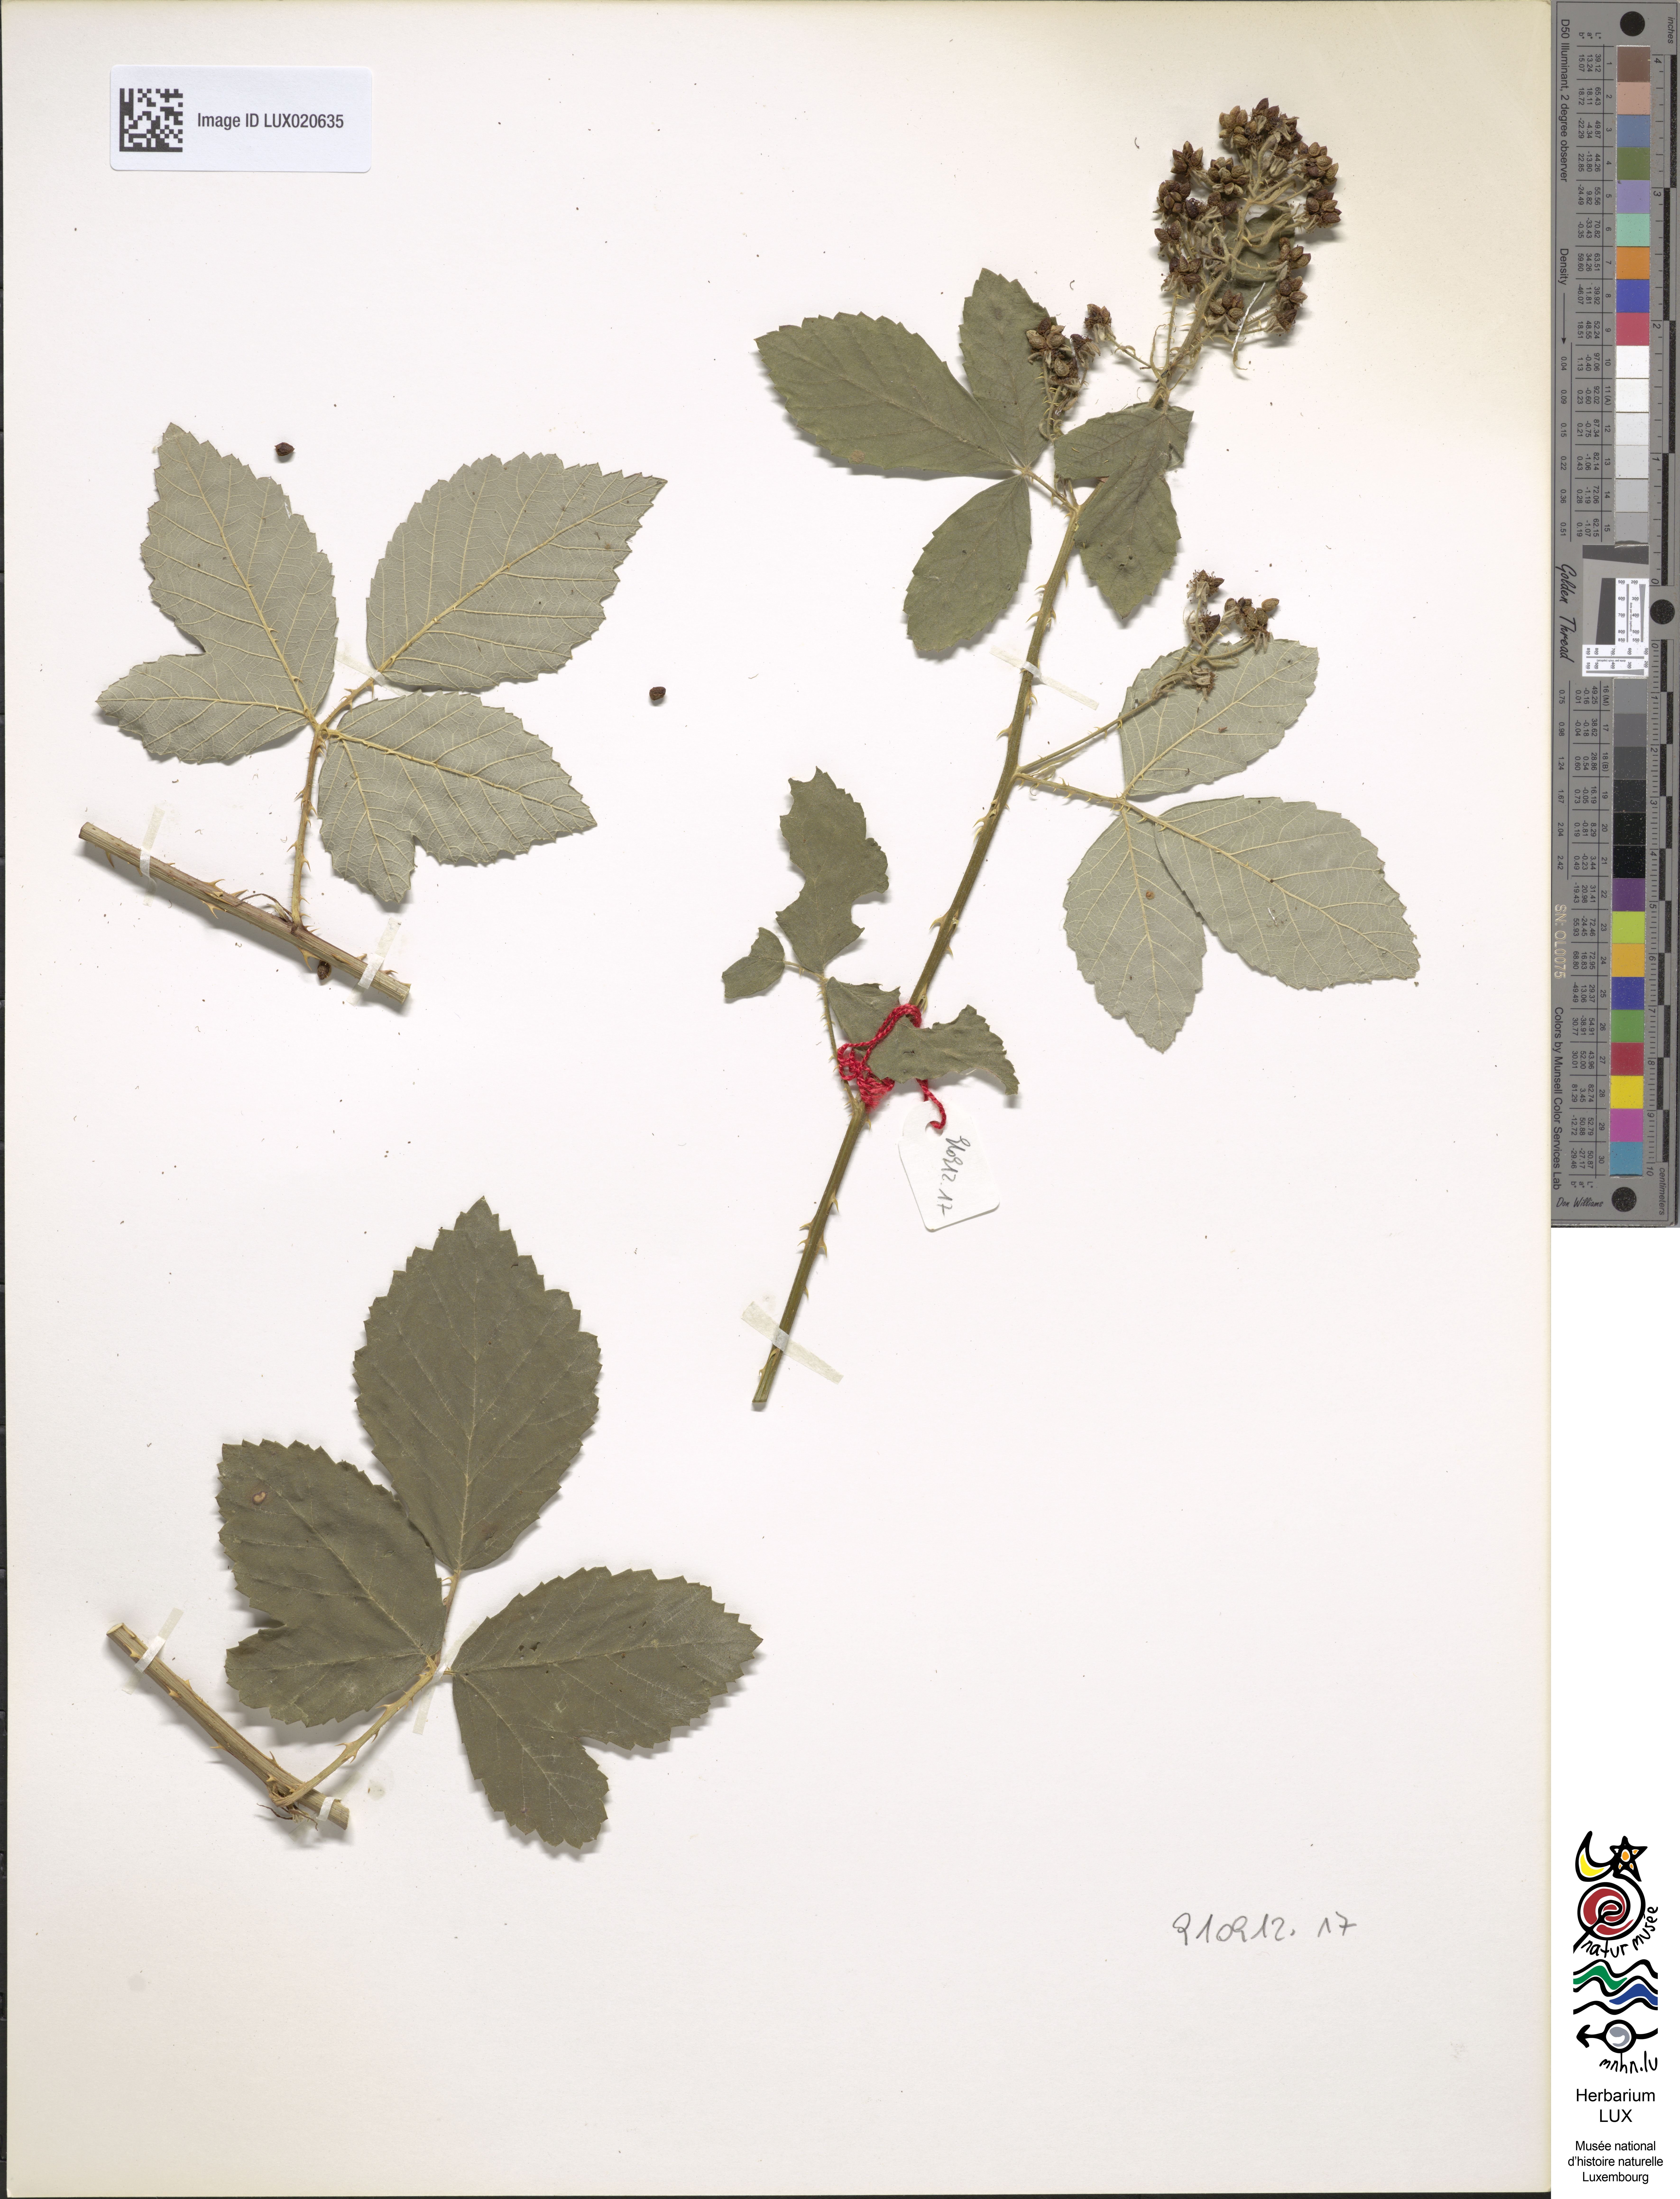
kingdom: Plantae
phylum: Tracheophyta
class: Magnoliopsida
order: Rosales
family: Rosaceae
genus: Rubus
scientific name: Rubus canescens
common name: Wooly blackberry
